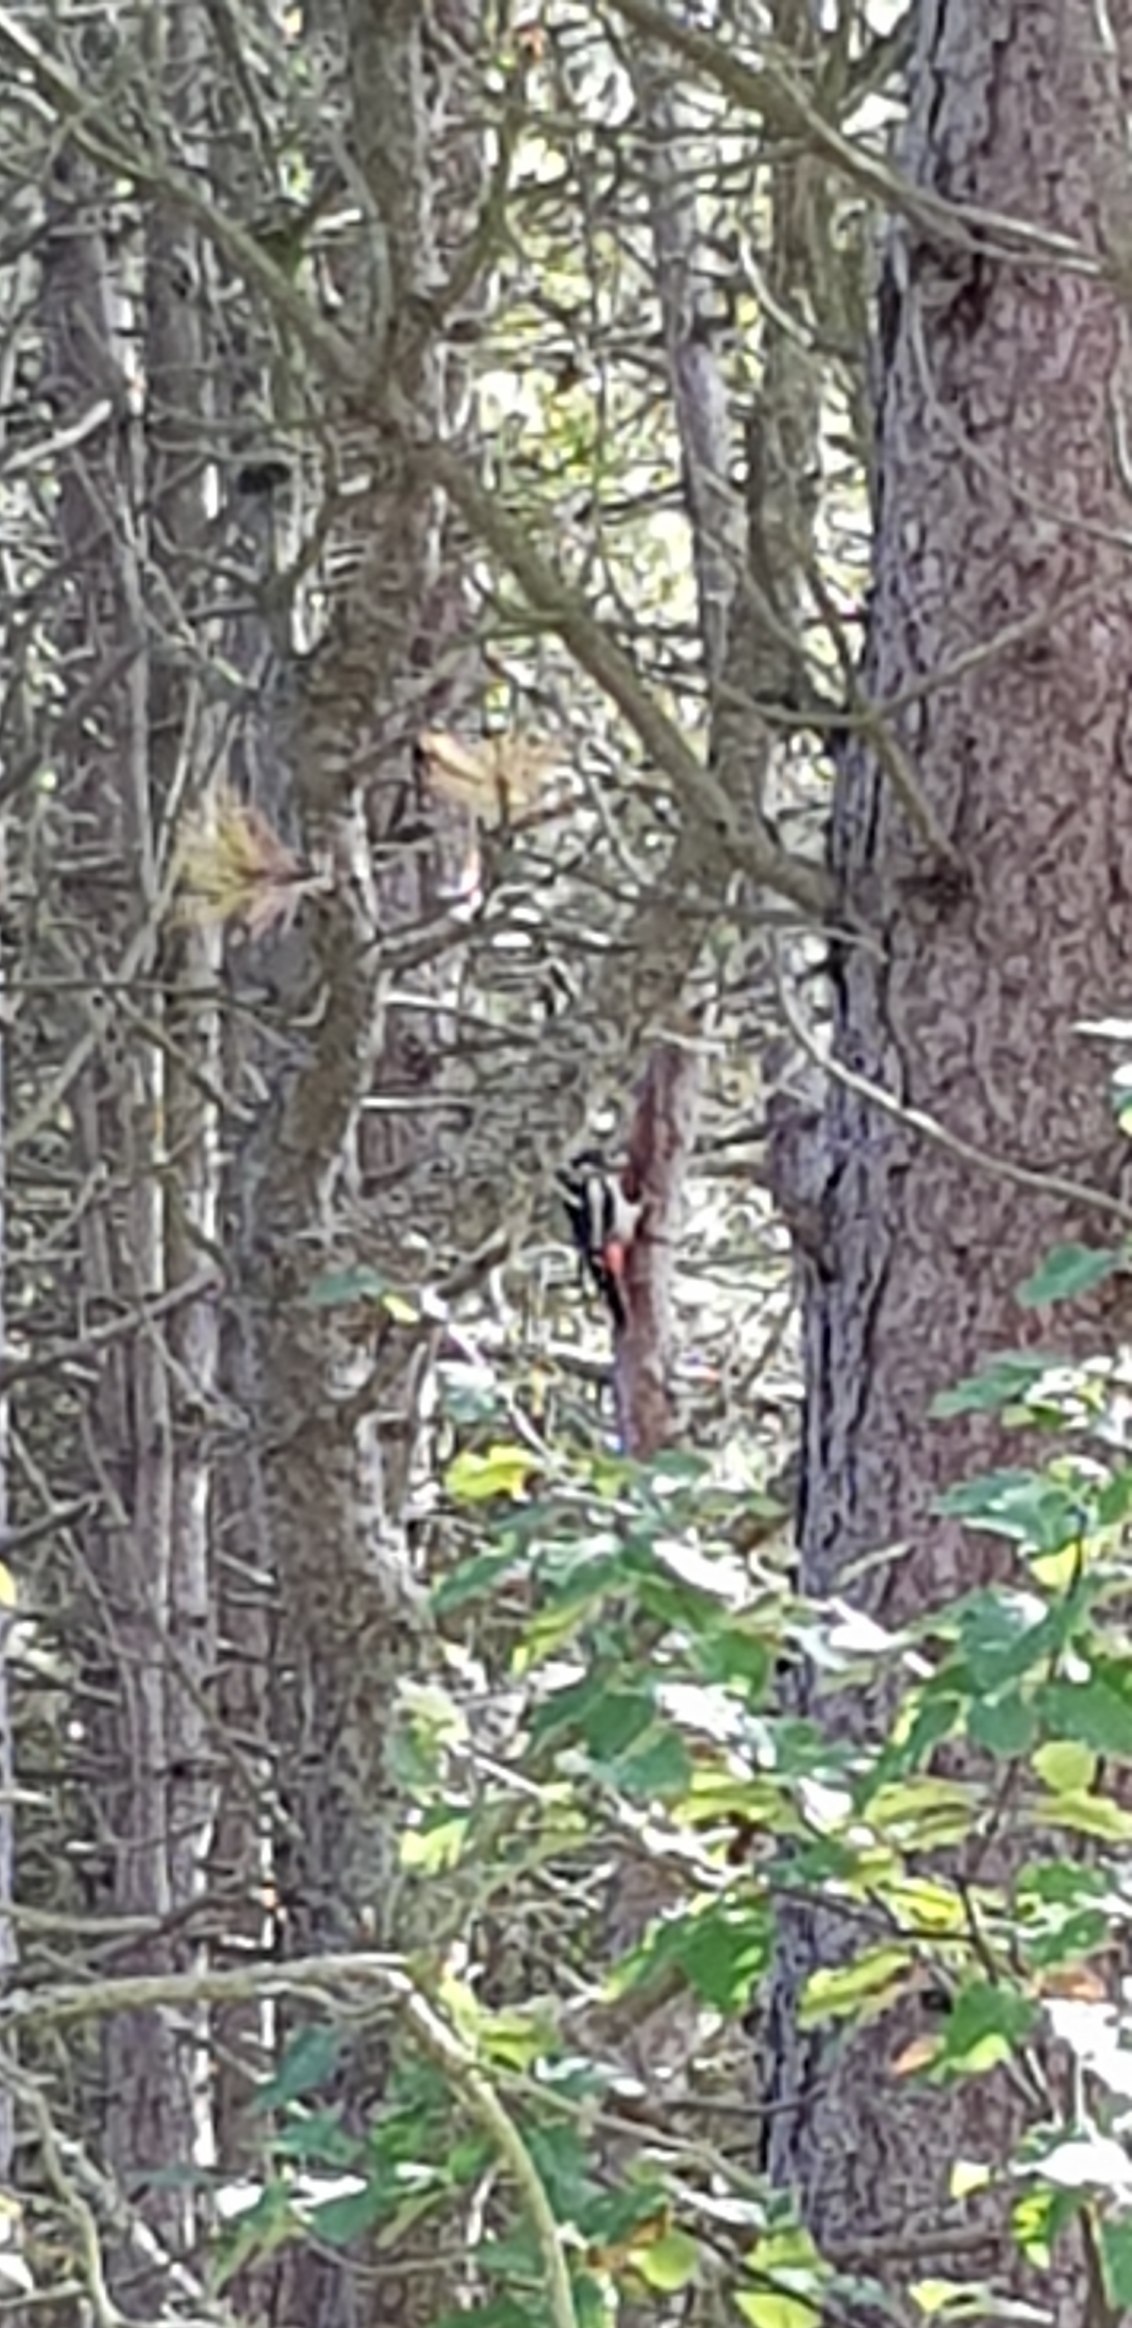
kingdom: Animalia
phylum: Chordata
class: Aves
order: Piciformes
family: Picidae
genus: Dendrocopos
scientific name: Dendrocopos major
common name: Stor flagspætte
